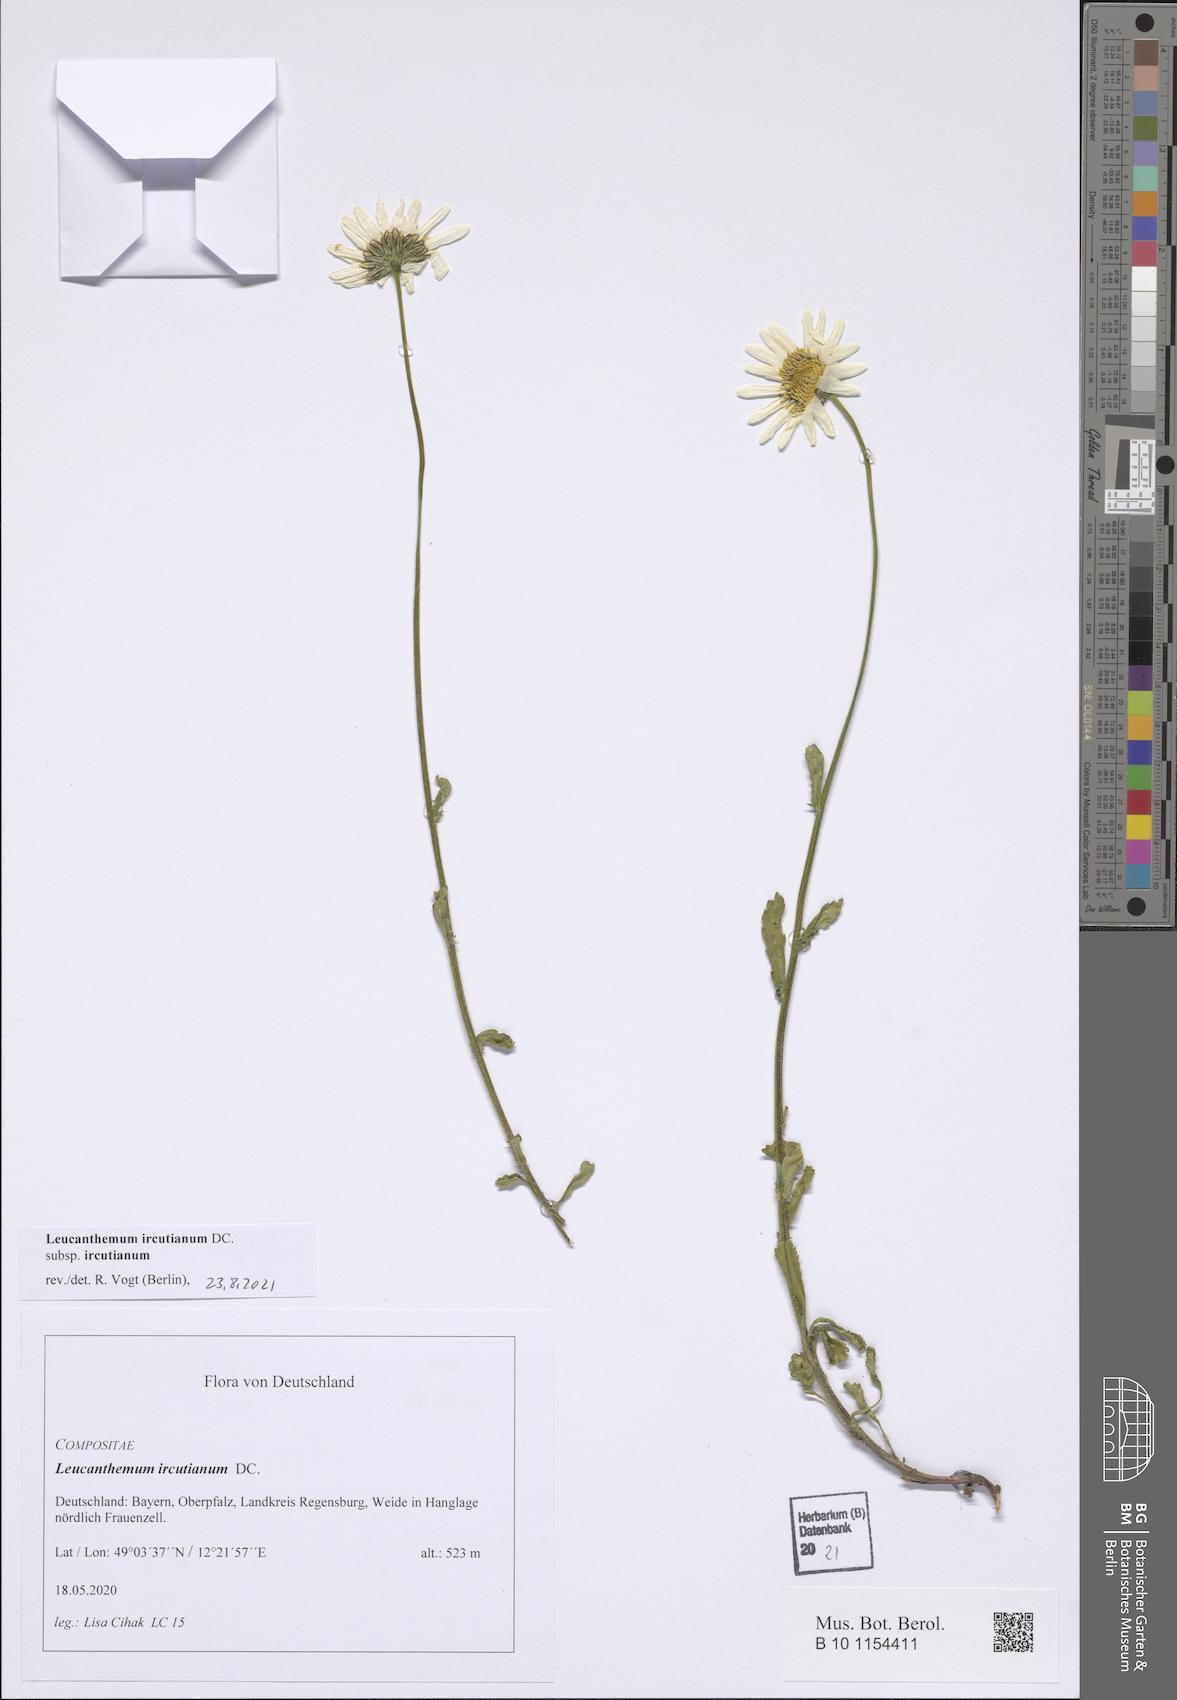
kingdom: Plantae
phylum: Tracheophyta
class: Magnoliopsida
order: Asterales
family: Asteraceae
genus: Leucanthemum
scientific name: Leucanthemum ircutianum
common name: Daisy
